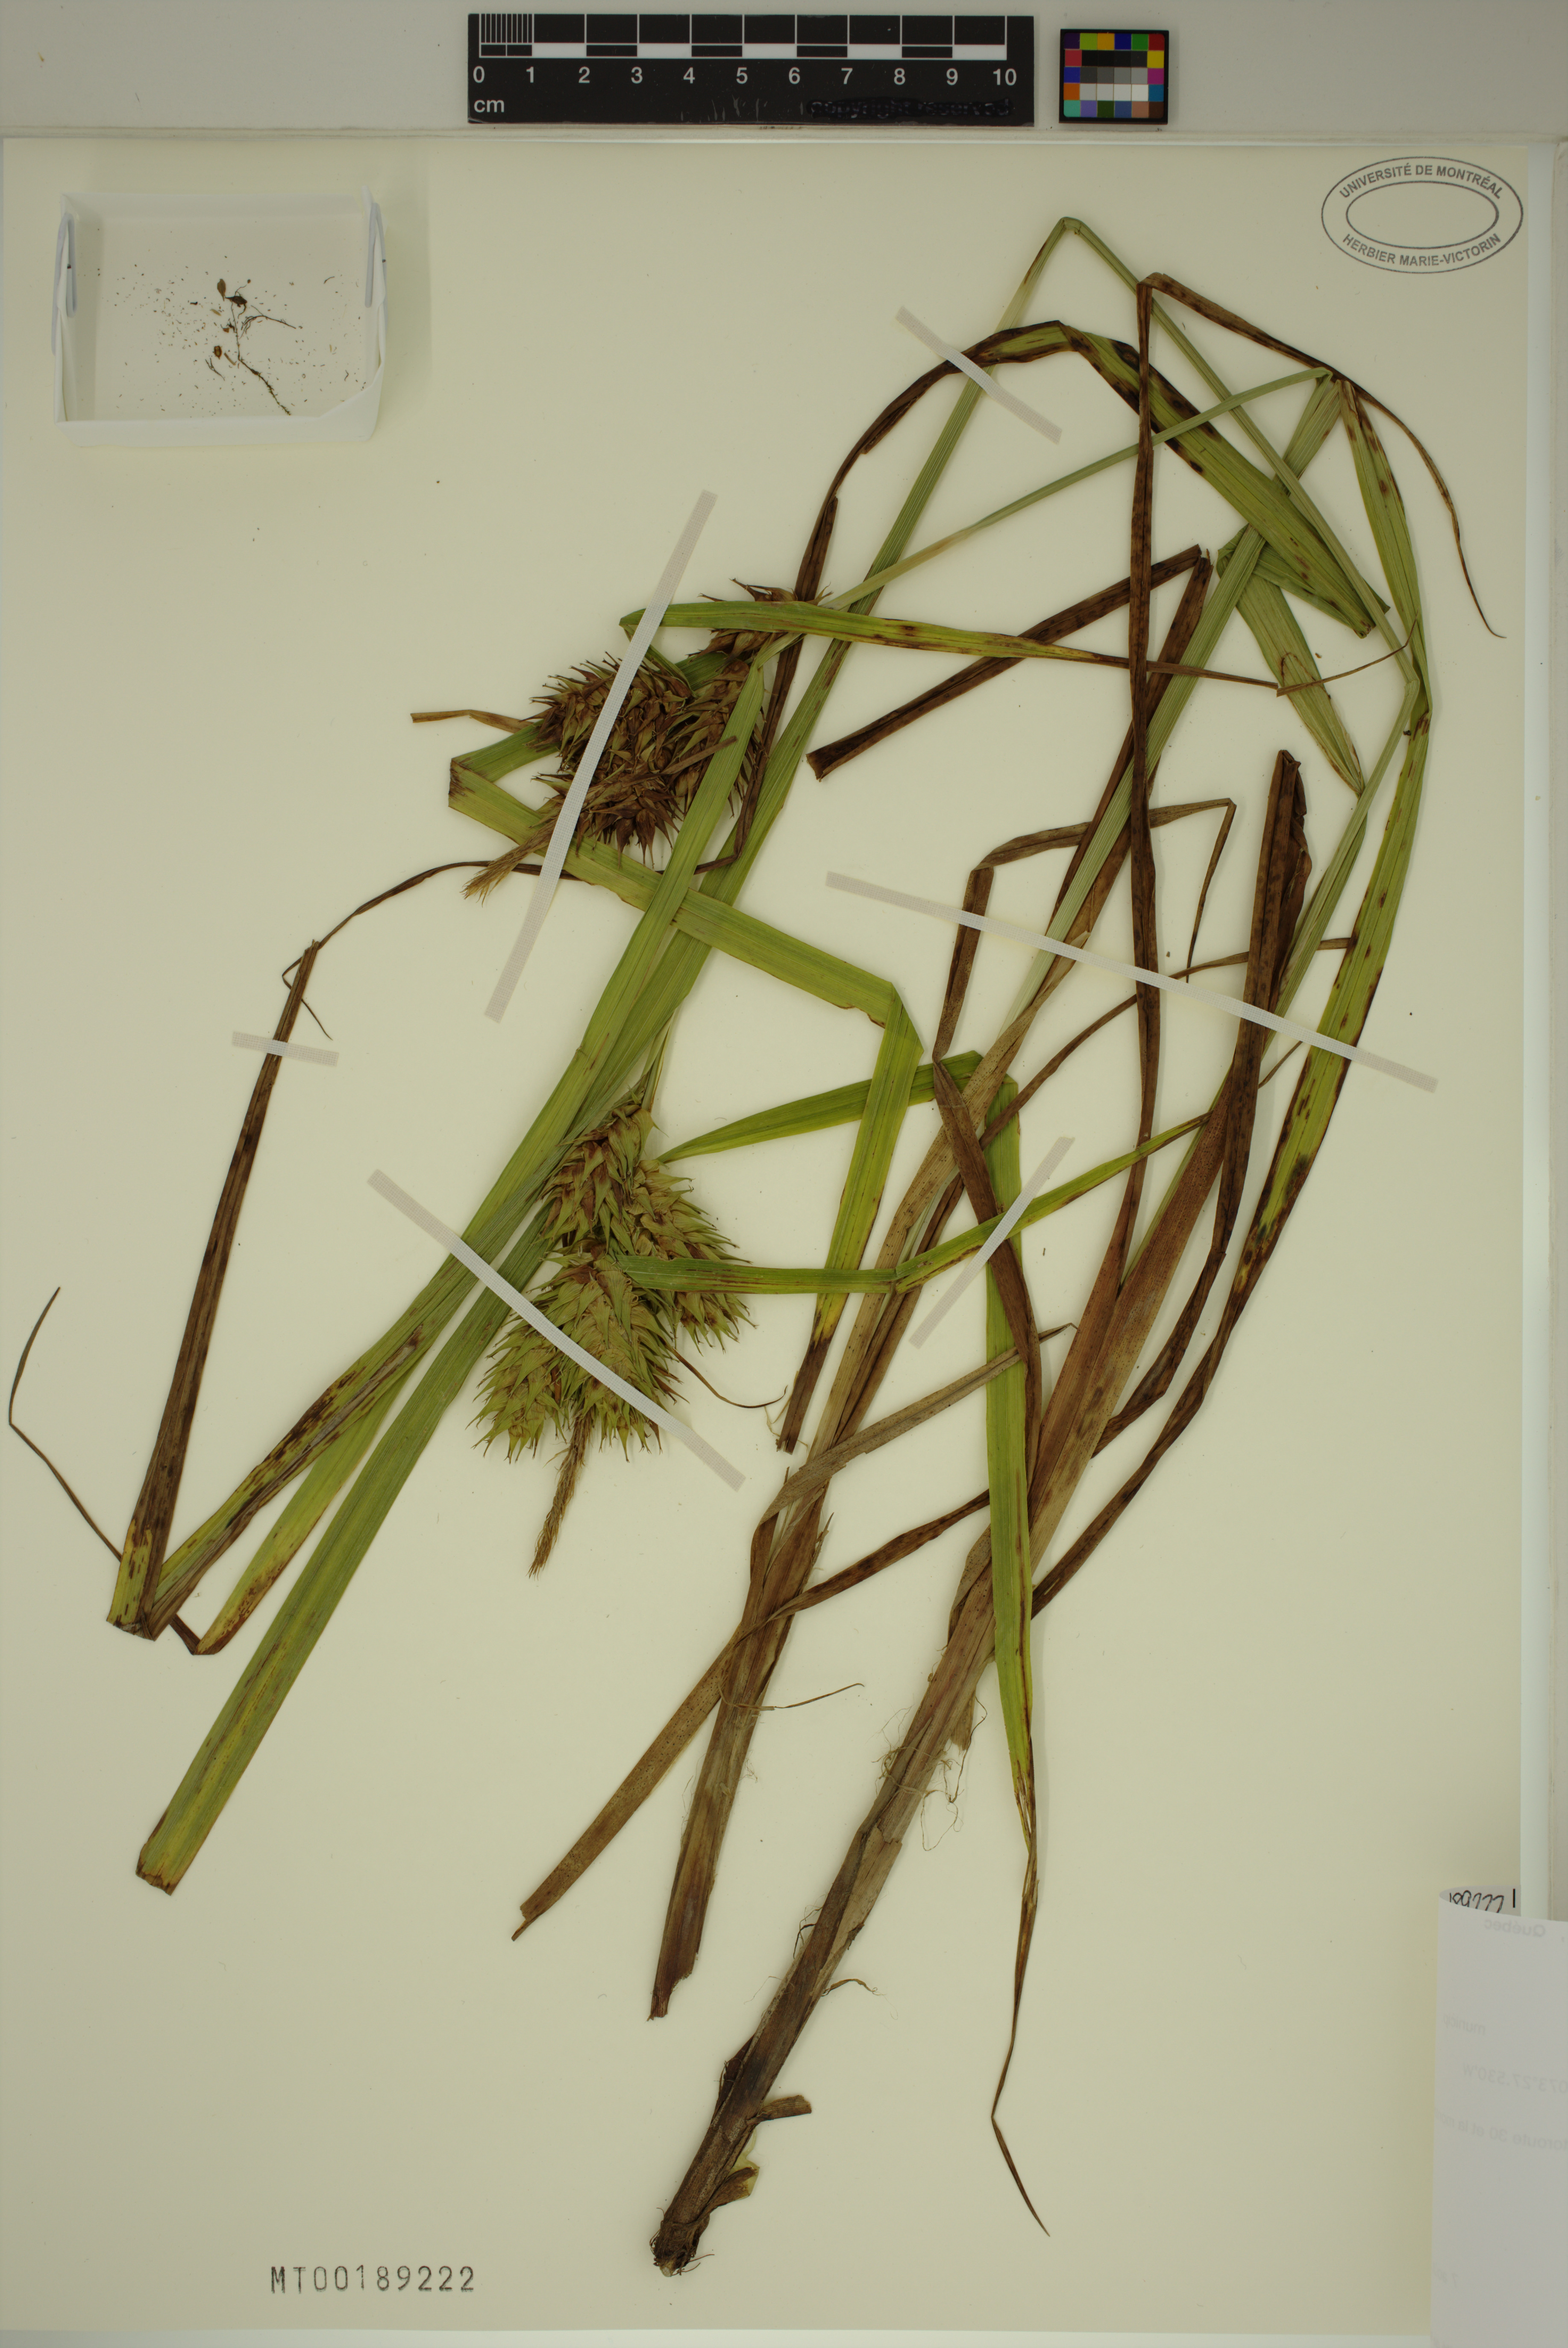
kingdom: Plantae
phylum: Tracheophyta
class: Liliopsida
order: Poales
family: Cyperaceae
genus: Carex
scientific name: Carex lupulina
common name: Hop sedge
